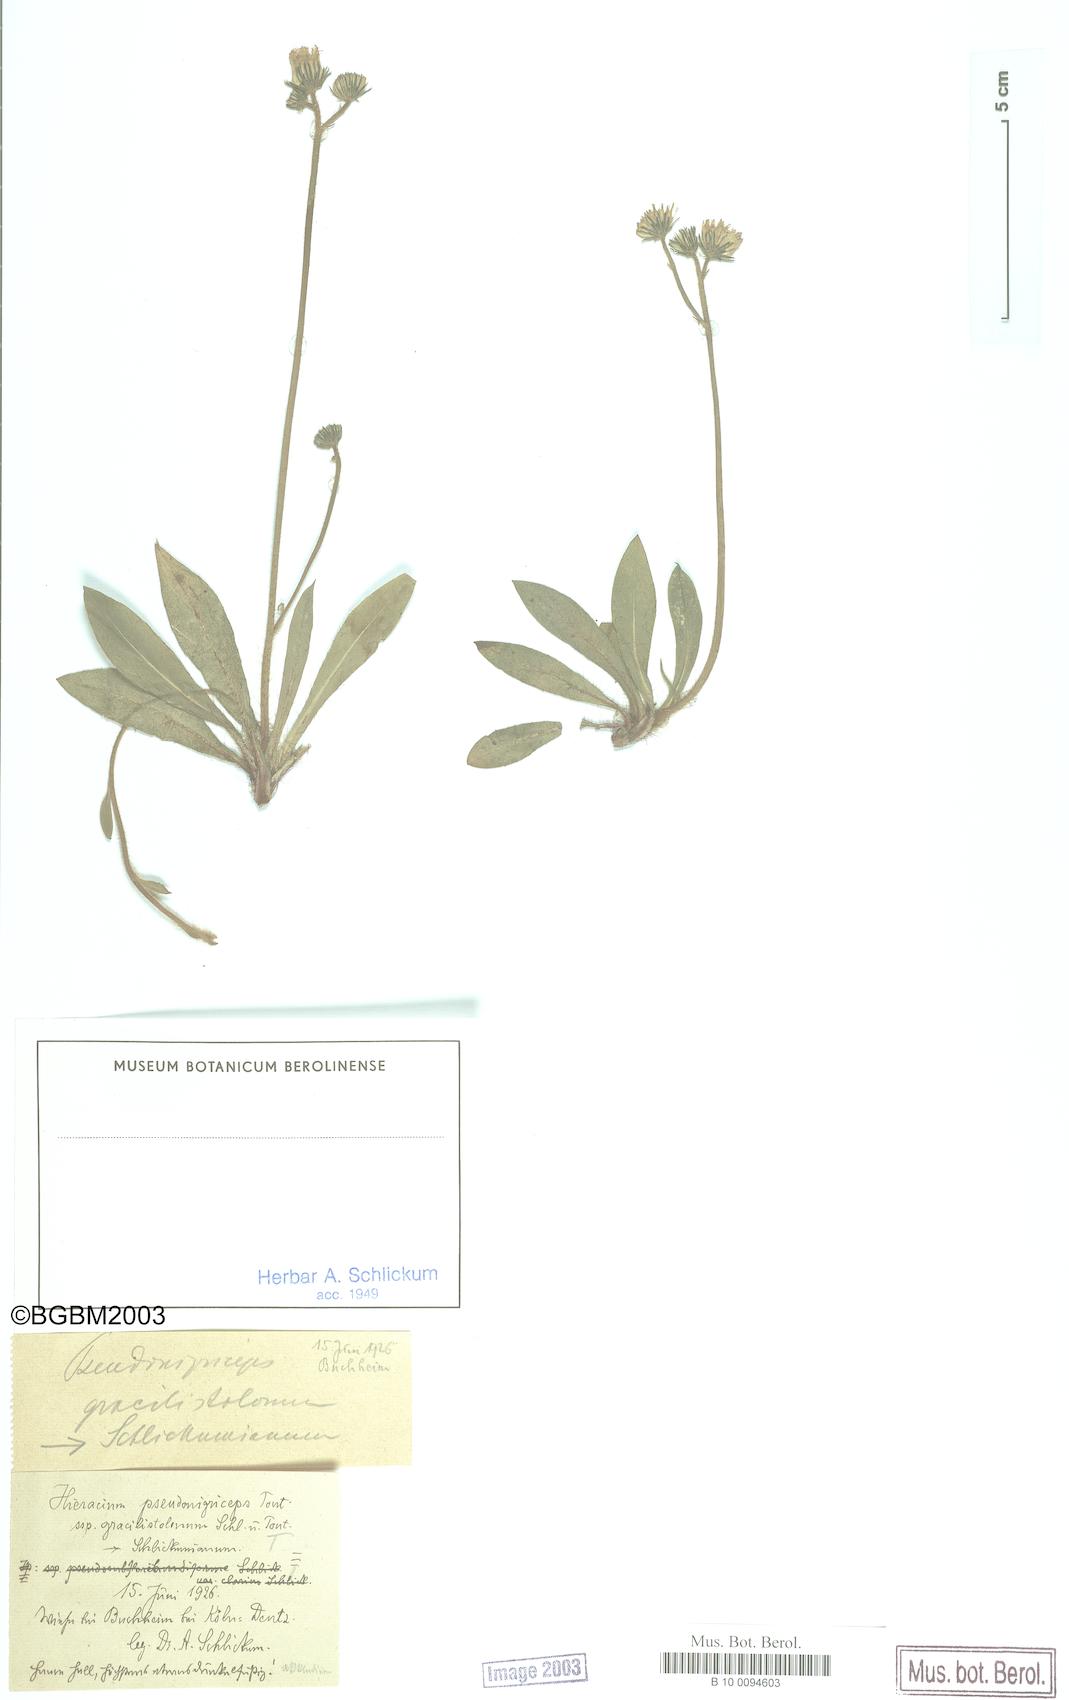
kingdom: Plantae
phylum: Tracheophyta
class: Magnoliopsida
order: Asterales
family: Asteraceae
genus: Hieracium
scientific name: Hieracium
